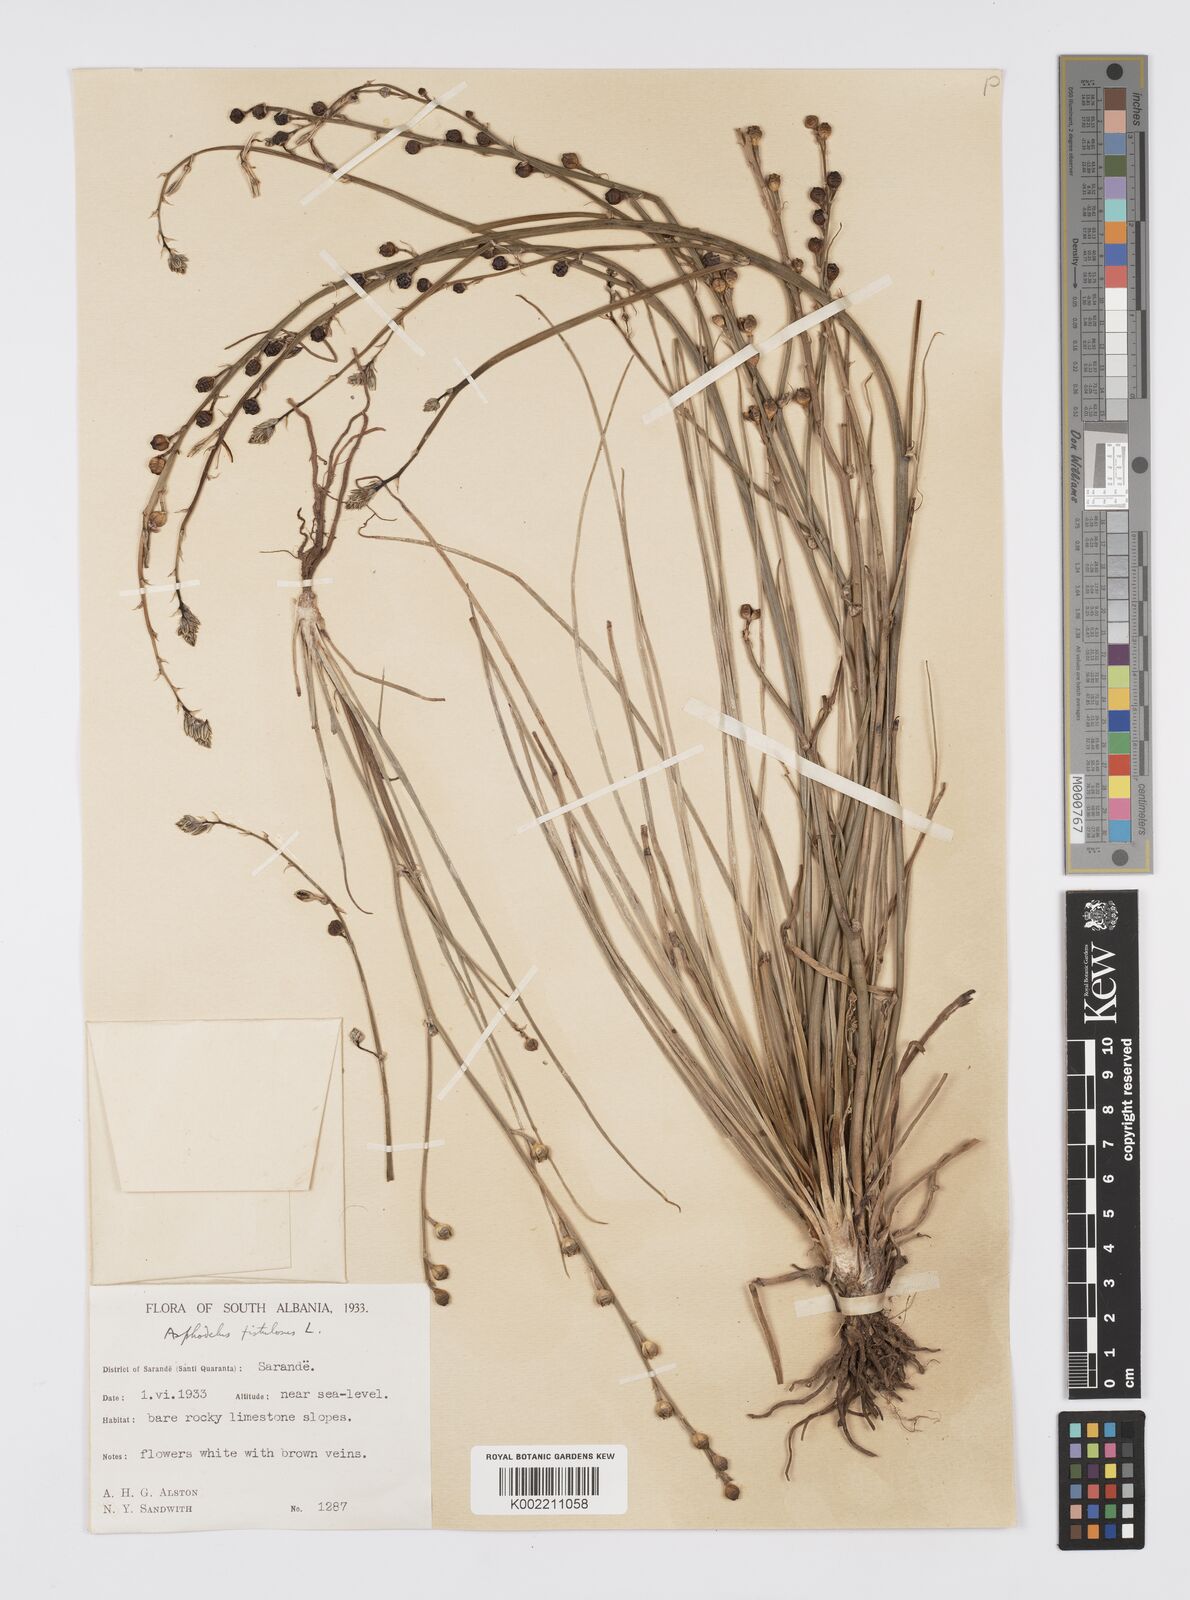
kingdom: Plantae
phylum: Tracheophyta
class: Liliopsida
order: Asparagales
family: Asphodelaceae
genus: Asphodelus
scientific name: Asphodelus fistulosus
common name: Onionweed
